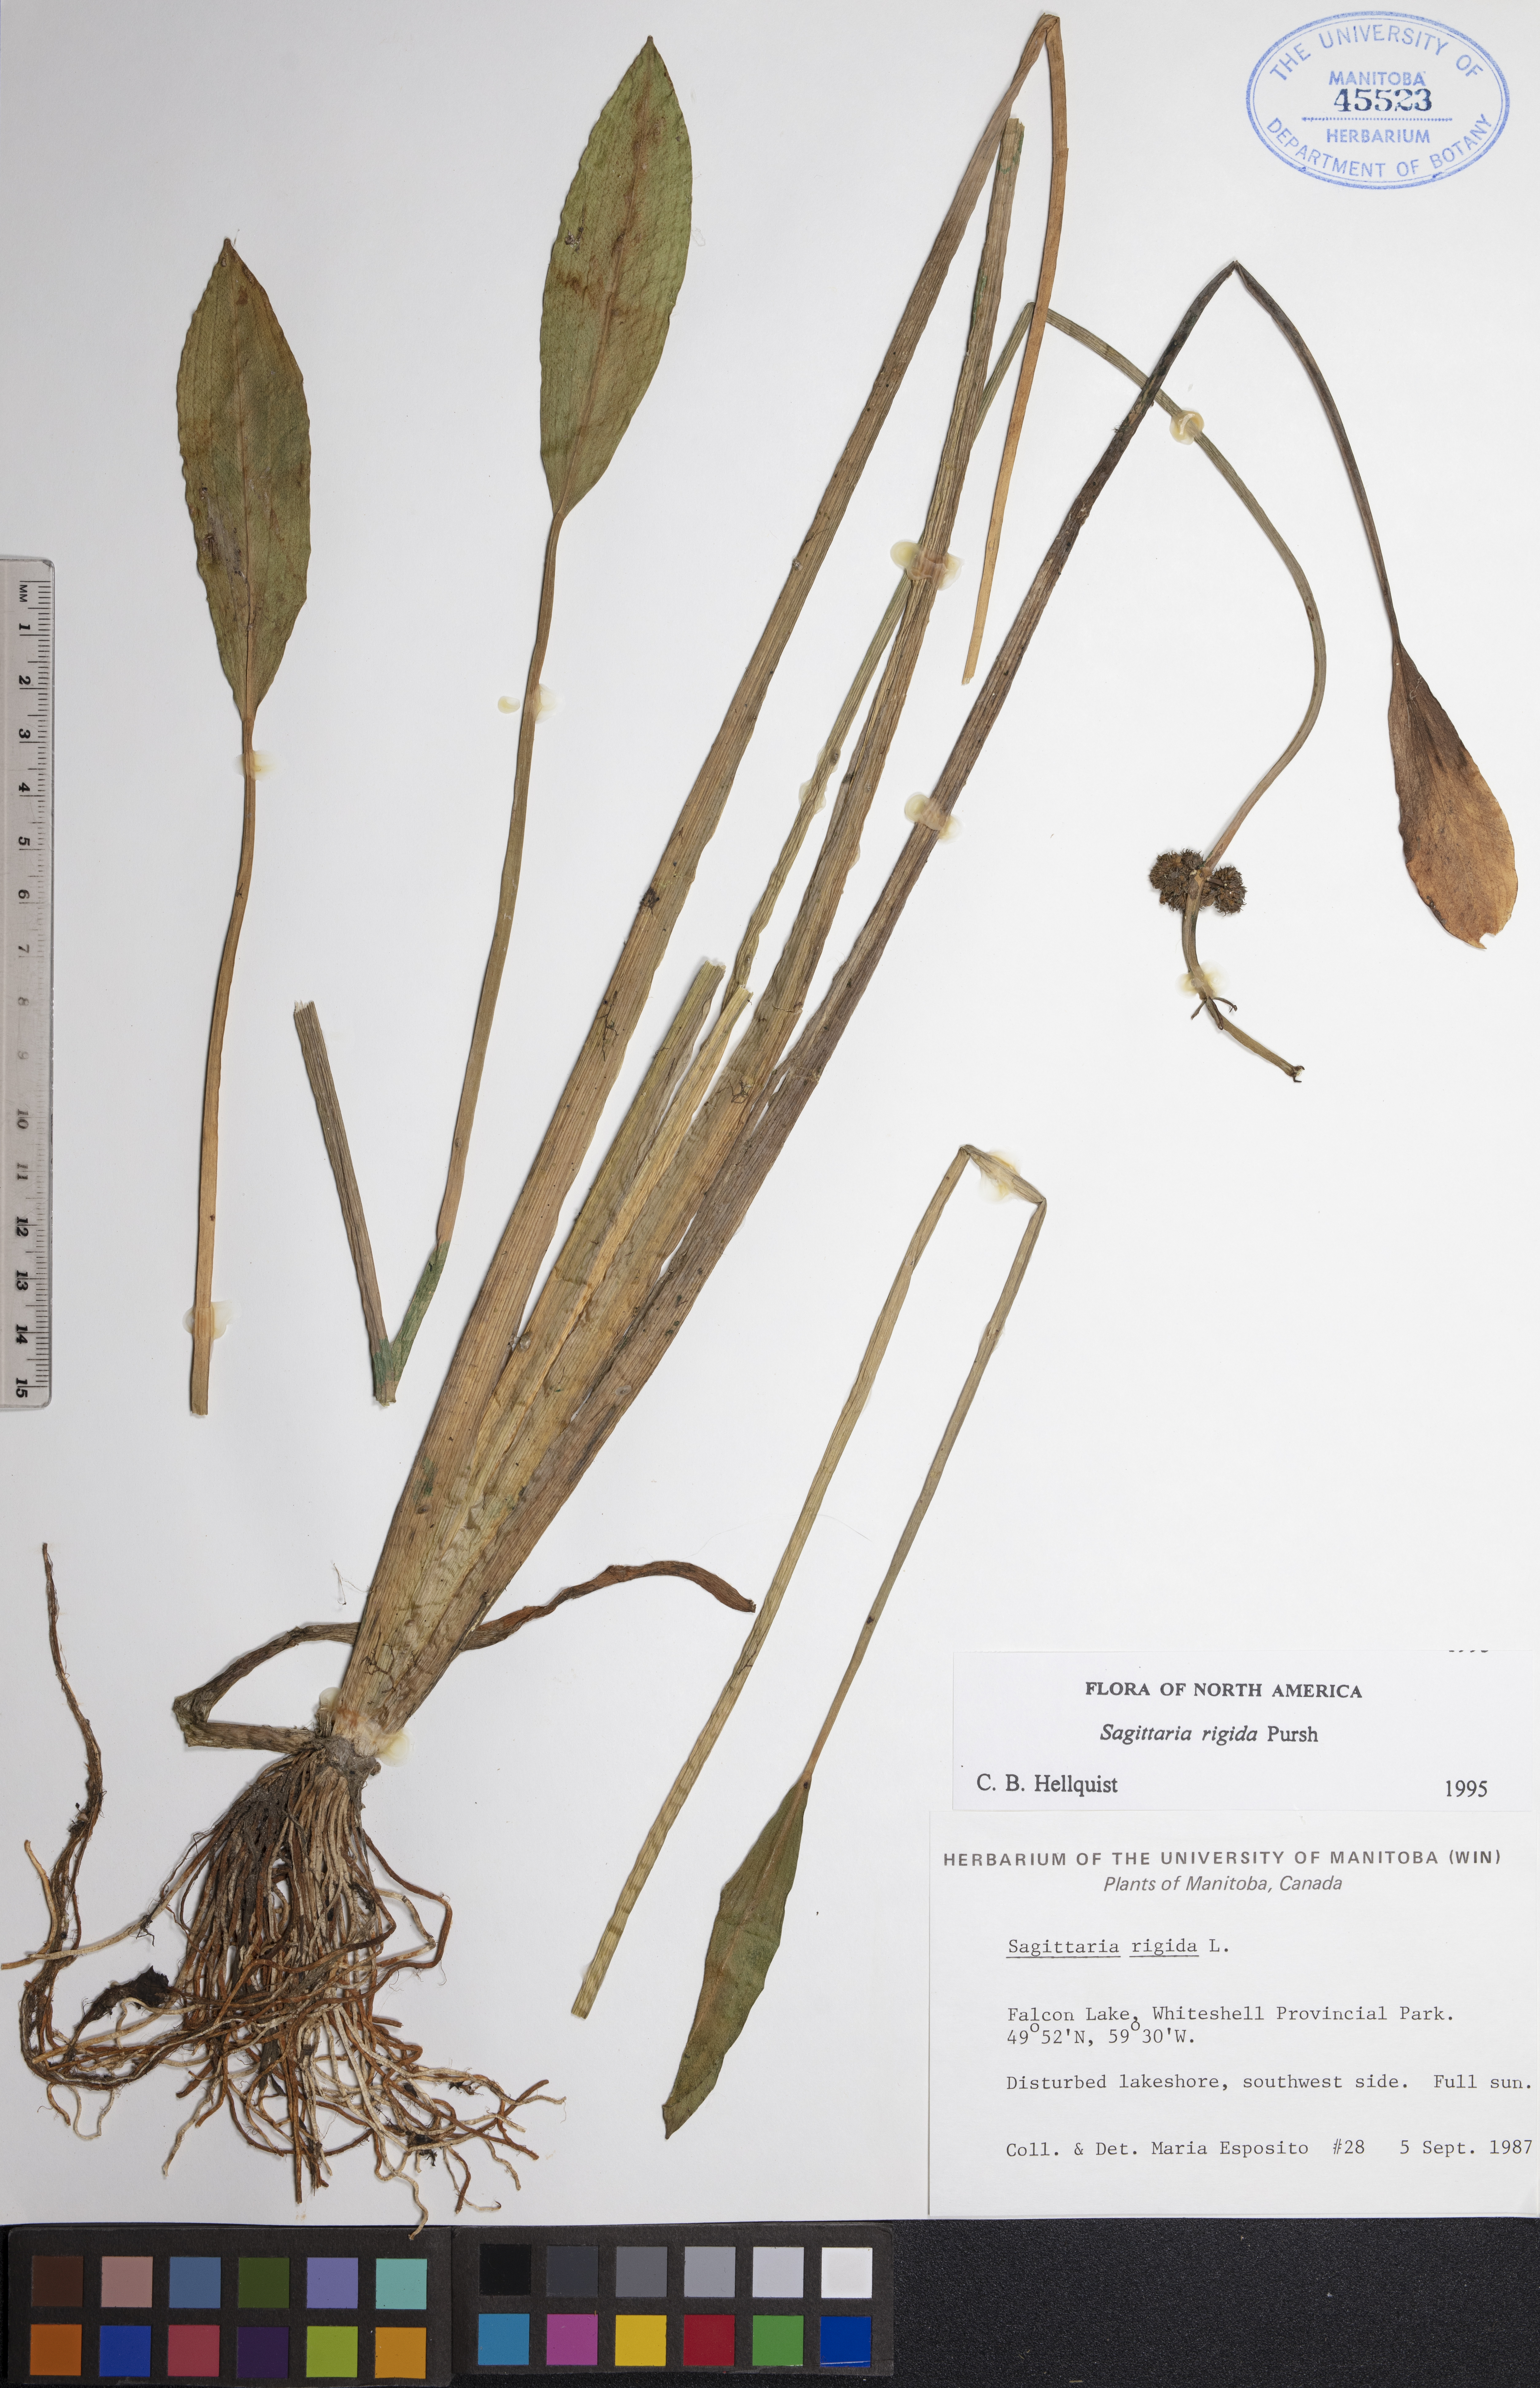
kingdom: Plantae
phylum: Tracheophyta
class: Liliopsida
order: Alismatales
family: Alismataceae
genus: Sagittaria
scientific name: Sagittaria rigida
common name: Canadian arrowhead
